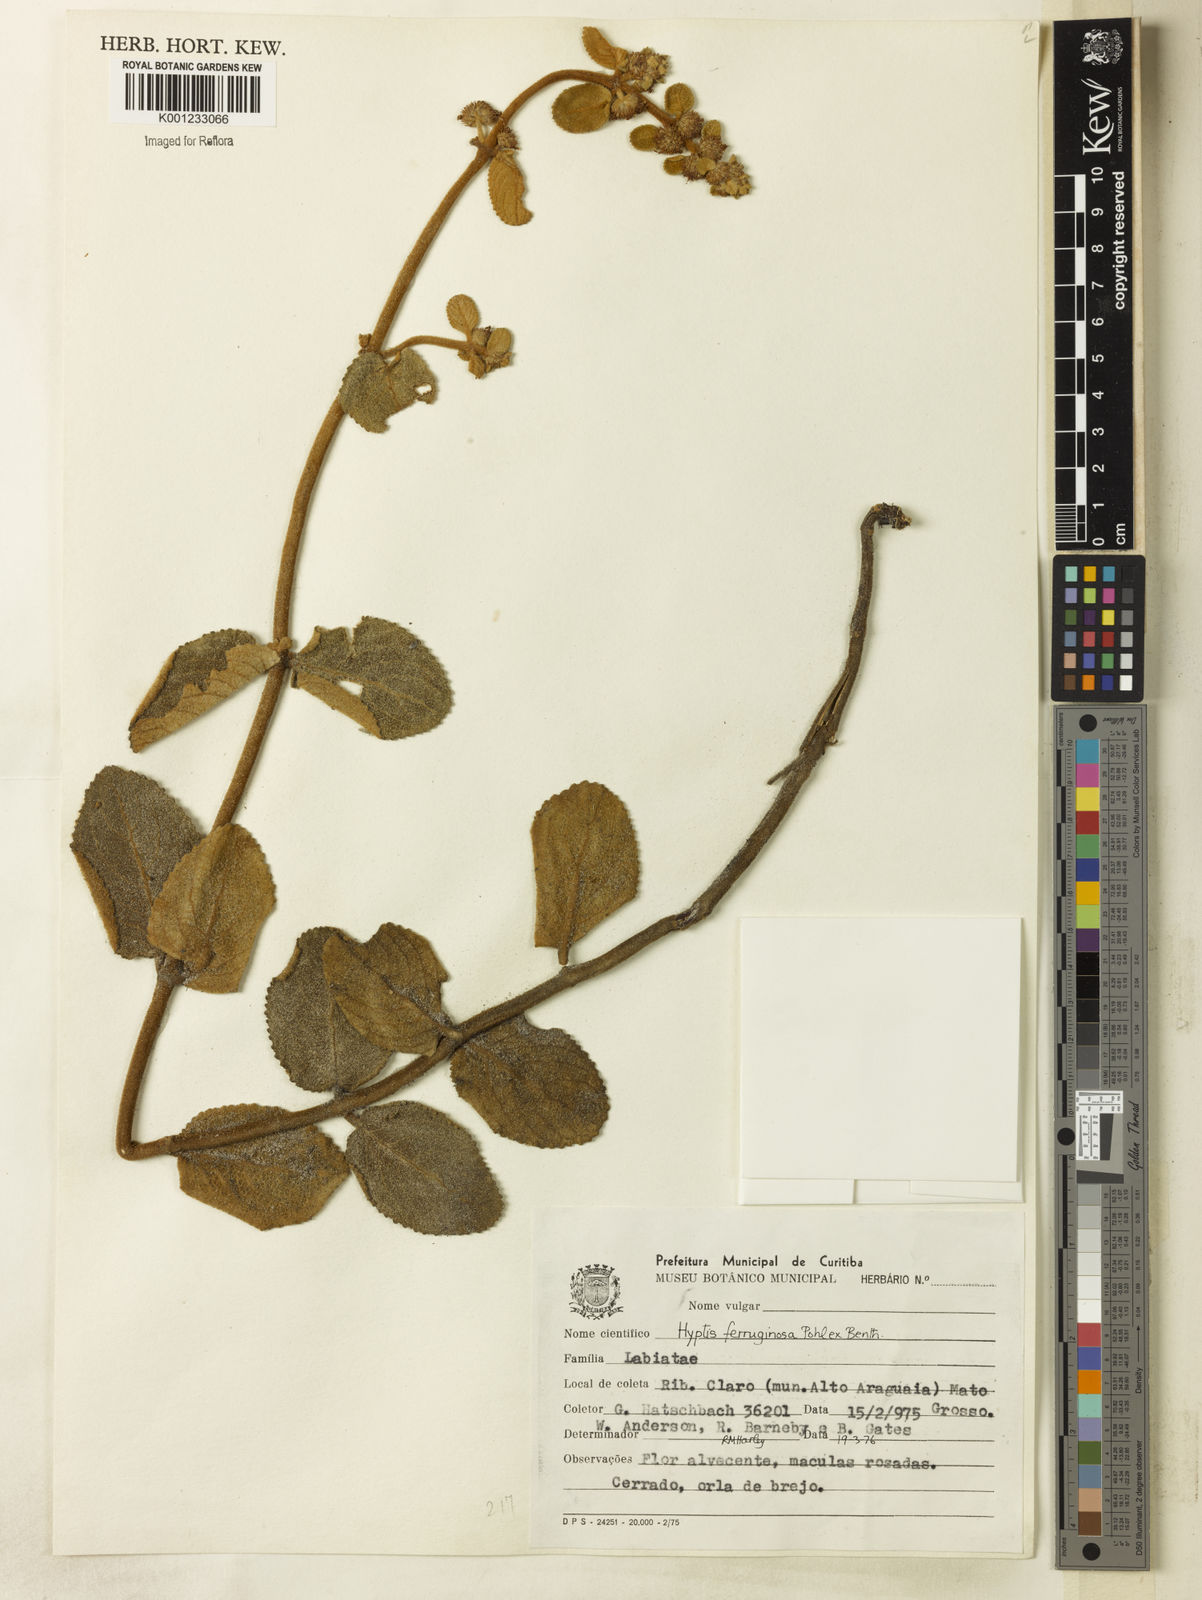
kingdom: Plantae
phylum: Tracheophyta
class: Magnoliopsida
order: Lamiales
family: Lamiaceae
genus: Hyptis
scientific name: Hyptis ferruginosa
